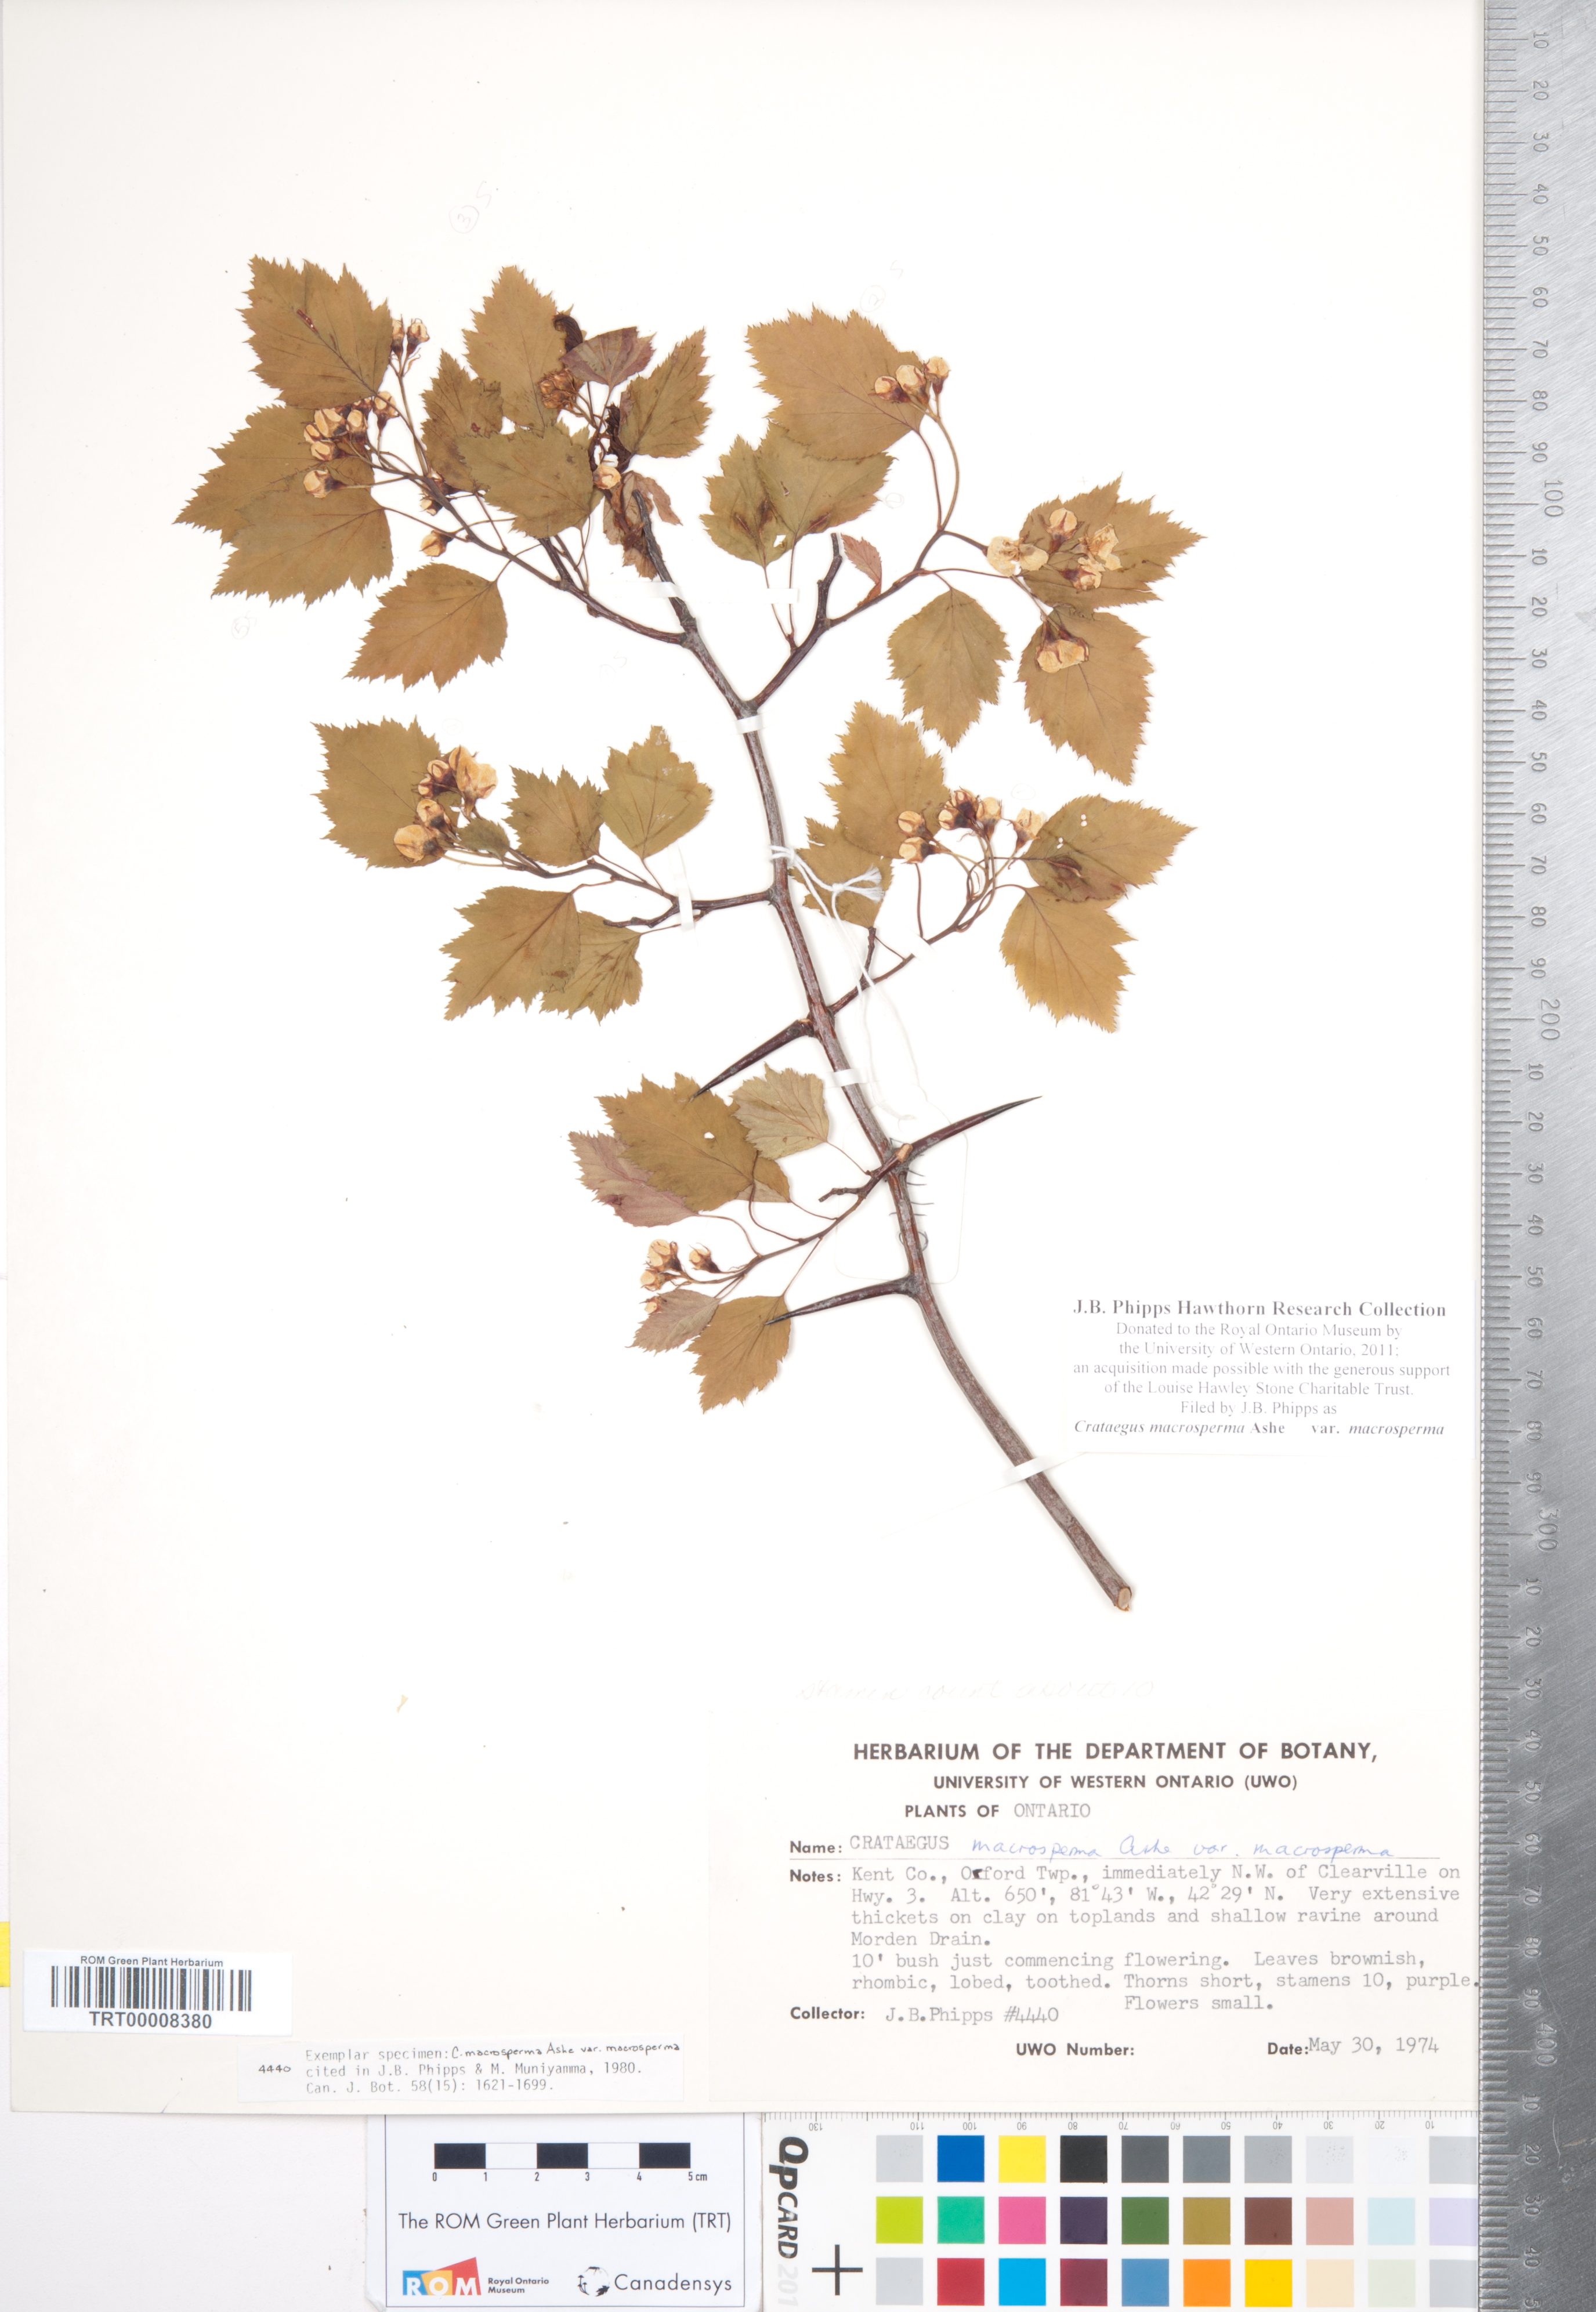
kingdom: Plantae
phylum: Tracheophyta
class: Magnoliopsida
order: Rosales
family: Rosaceae
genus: Crataegus
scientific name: Crataegus macrosperma
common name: Variable hawthorn
